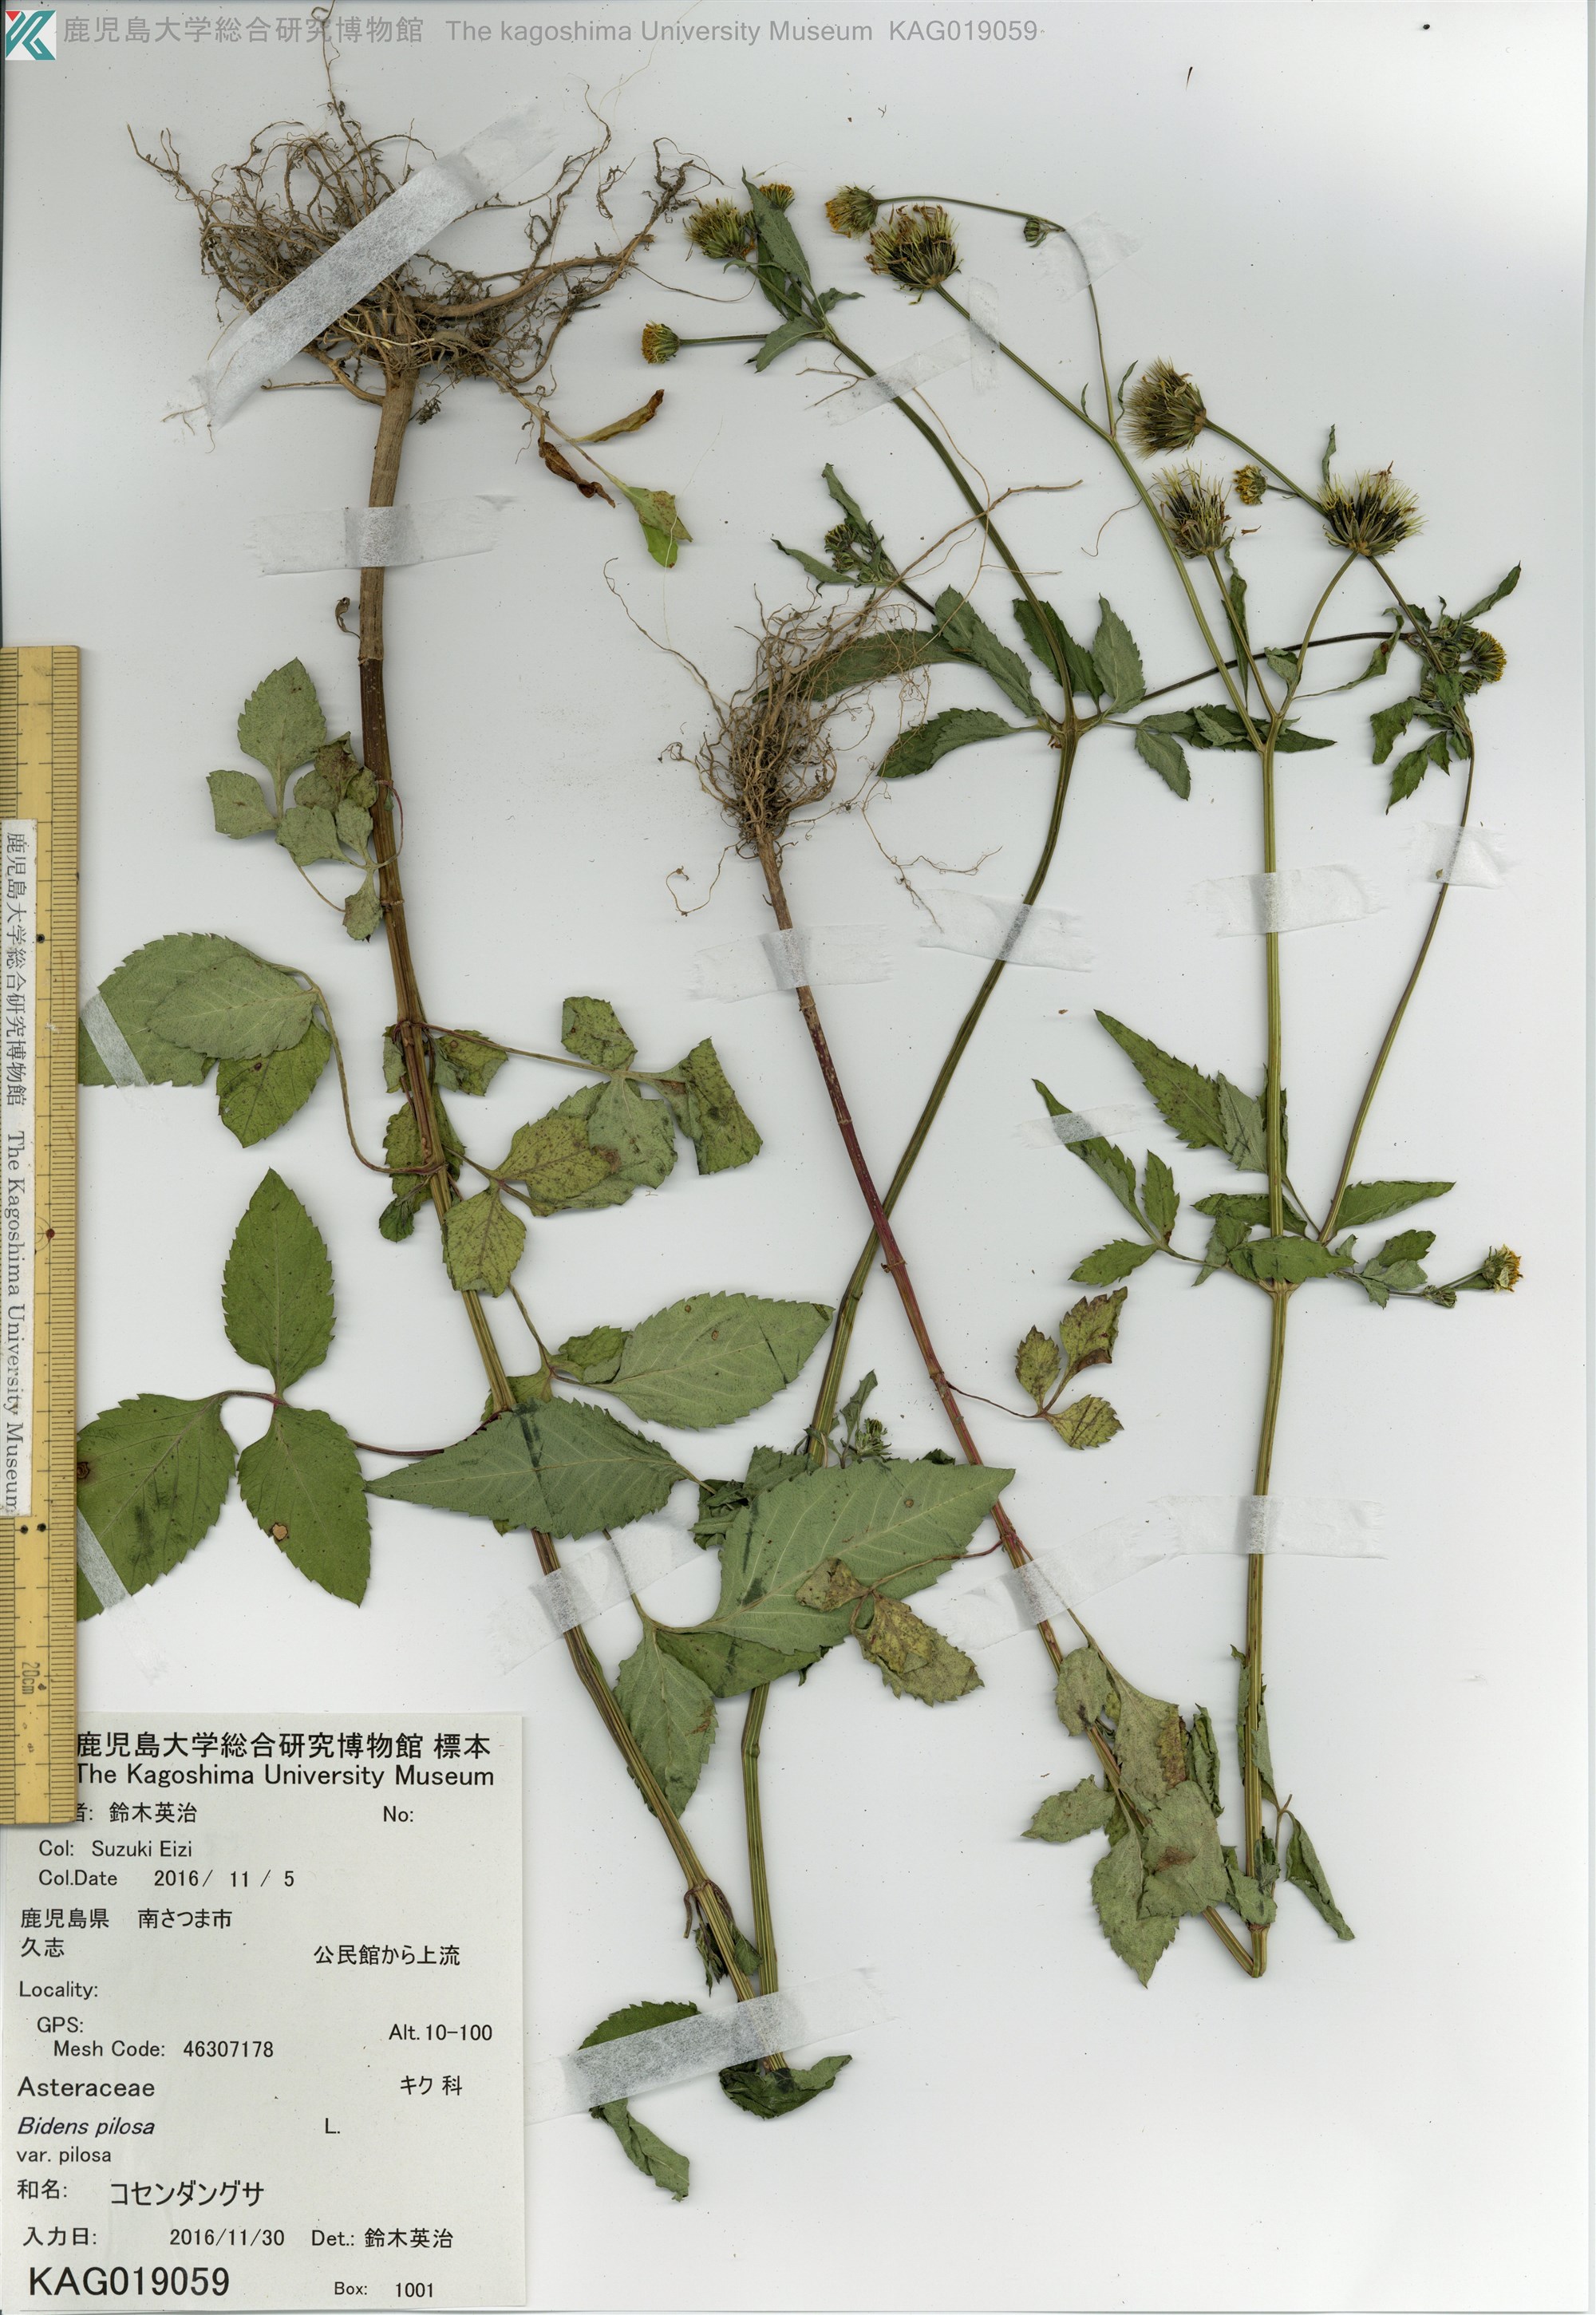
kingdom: Plantae
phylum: Tracheophyta
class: Magnoliopsida
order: Asterales
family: Asteraceae
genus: Bidens
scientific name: Bidens pilosa
